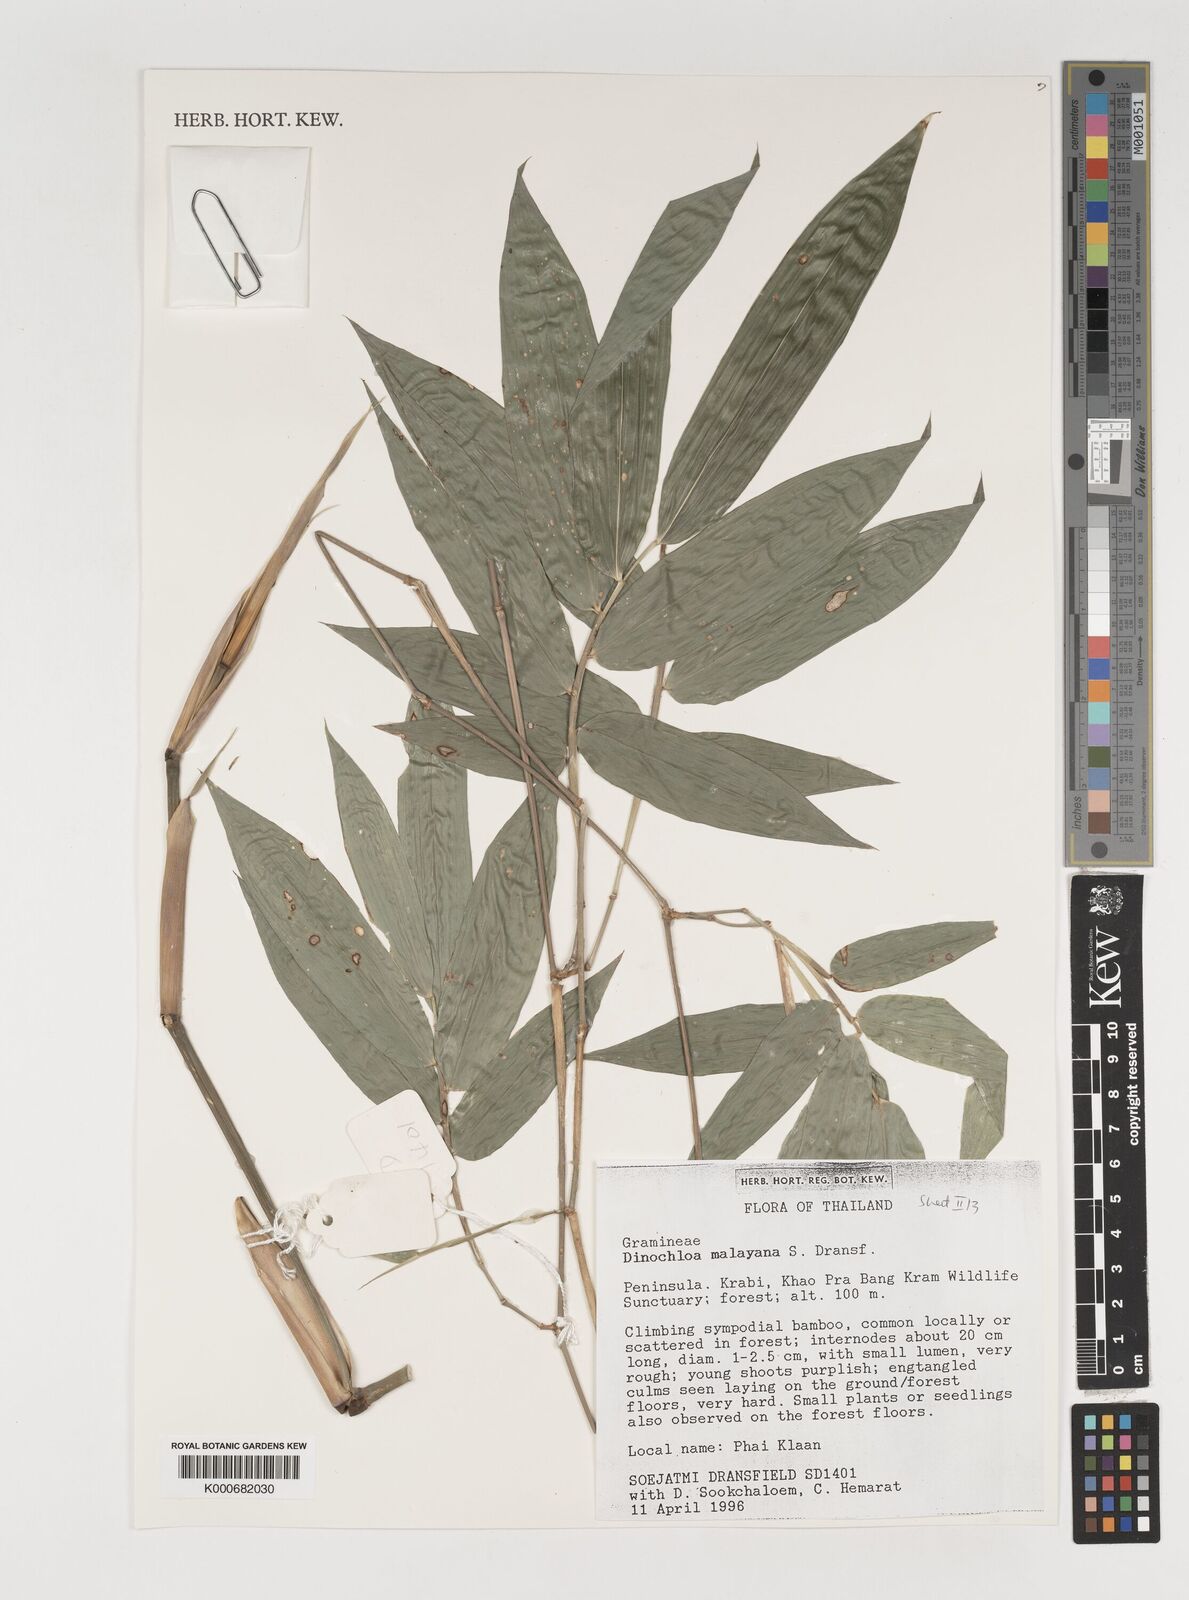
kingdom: Plantae
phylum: Tracheophyta
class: Liliopsida
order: Poales
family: Poaceae
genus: Dinochloa
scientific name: Dinochloa malayana
